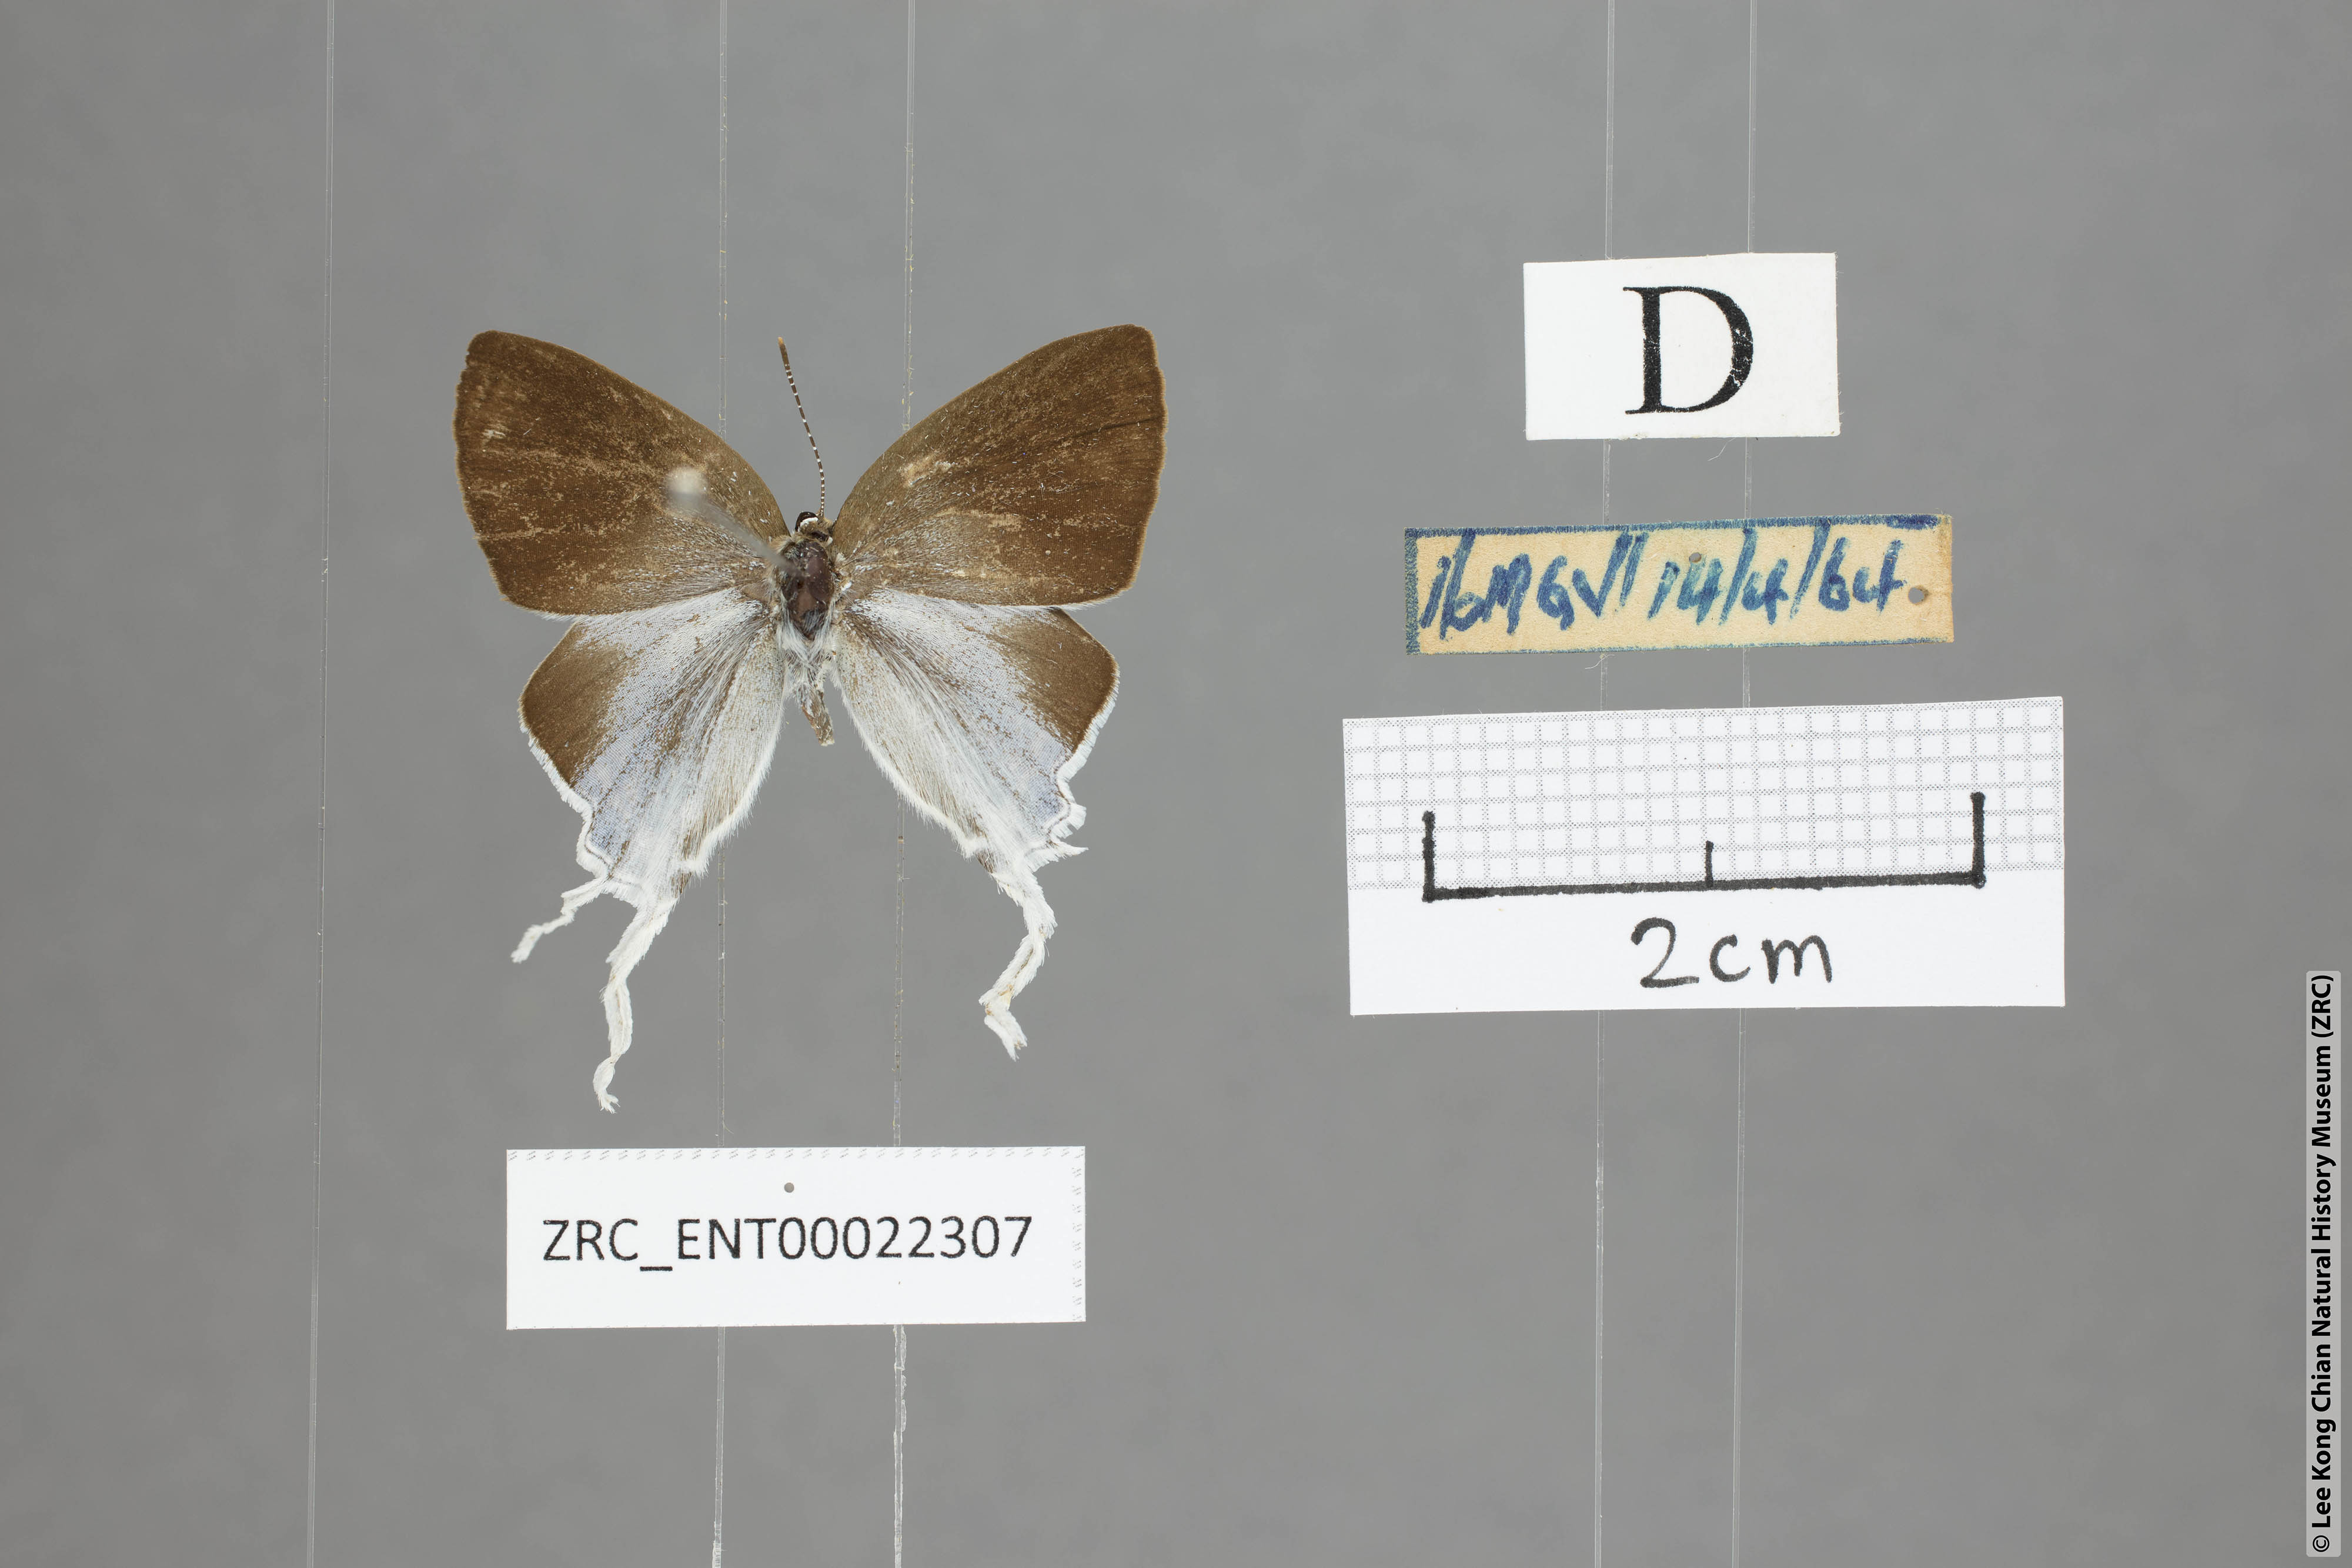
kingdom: Animalia
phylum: Arthropoda
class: Insecta
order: Lepidoptera
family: Lycaenidae
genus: Zeltus
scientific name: Zeltus amasa
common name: Fluffy tit
